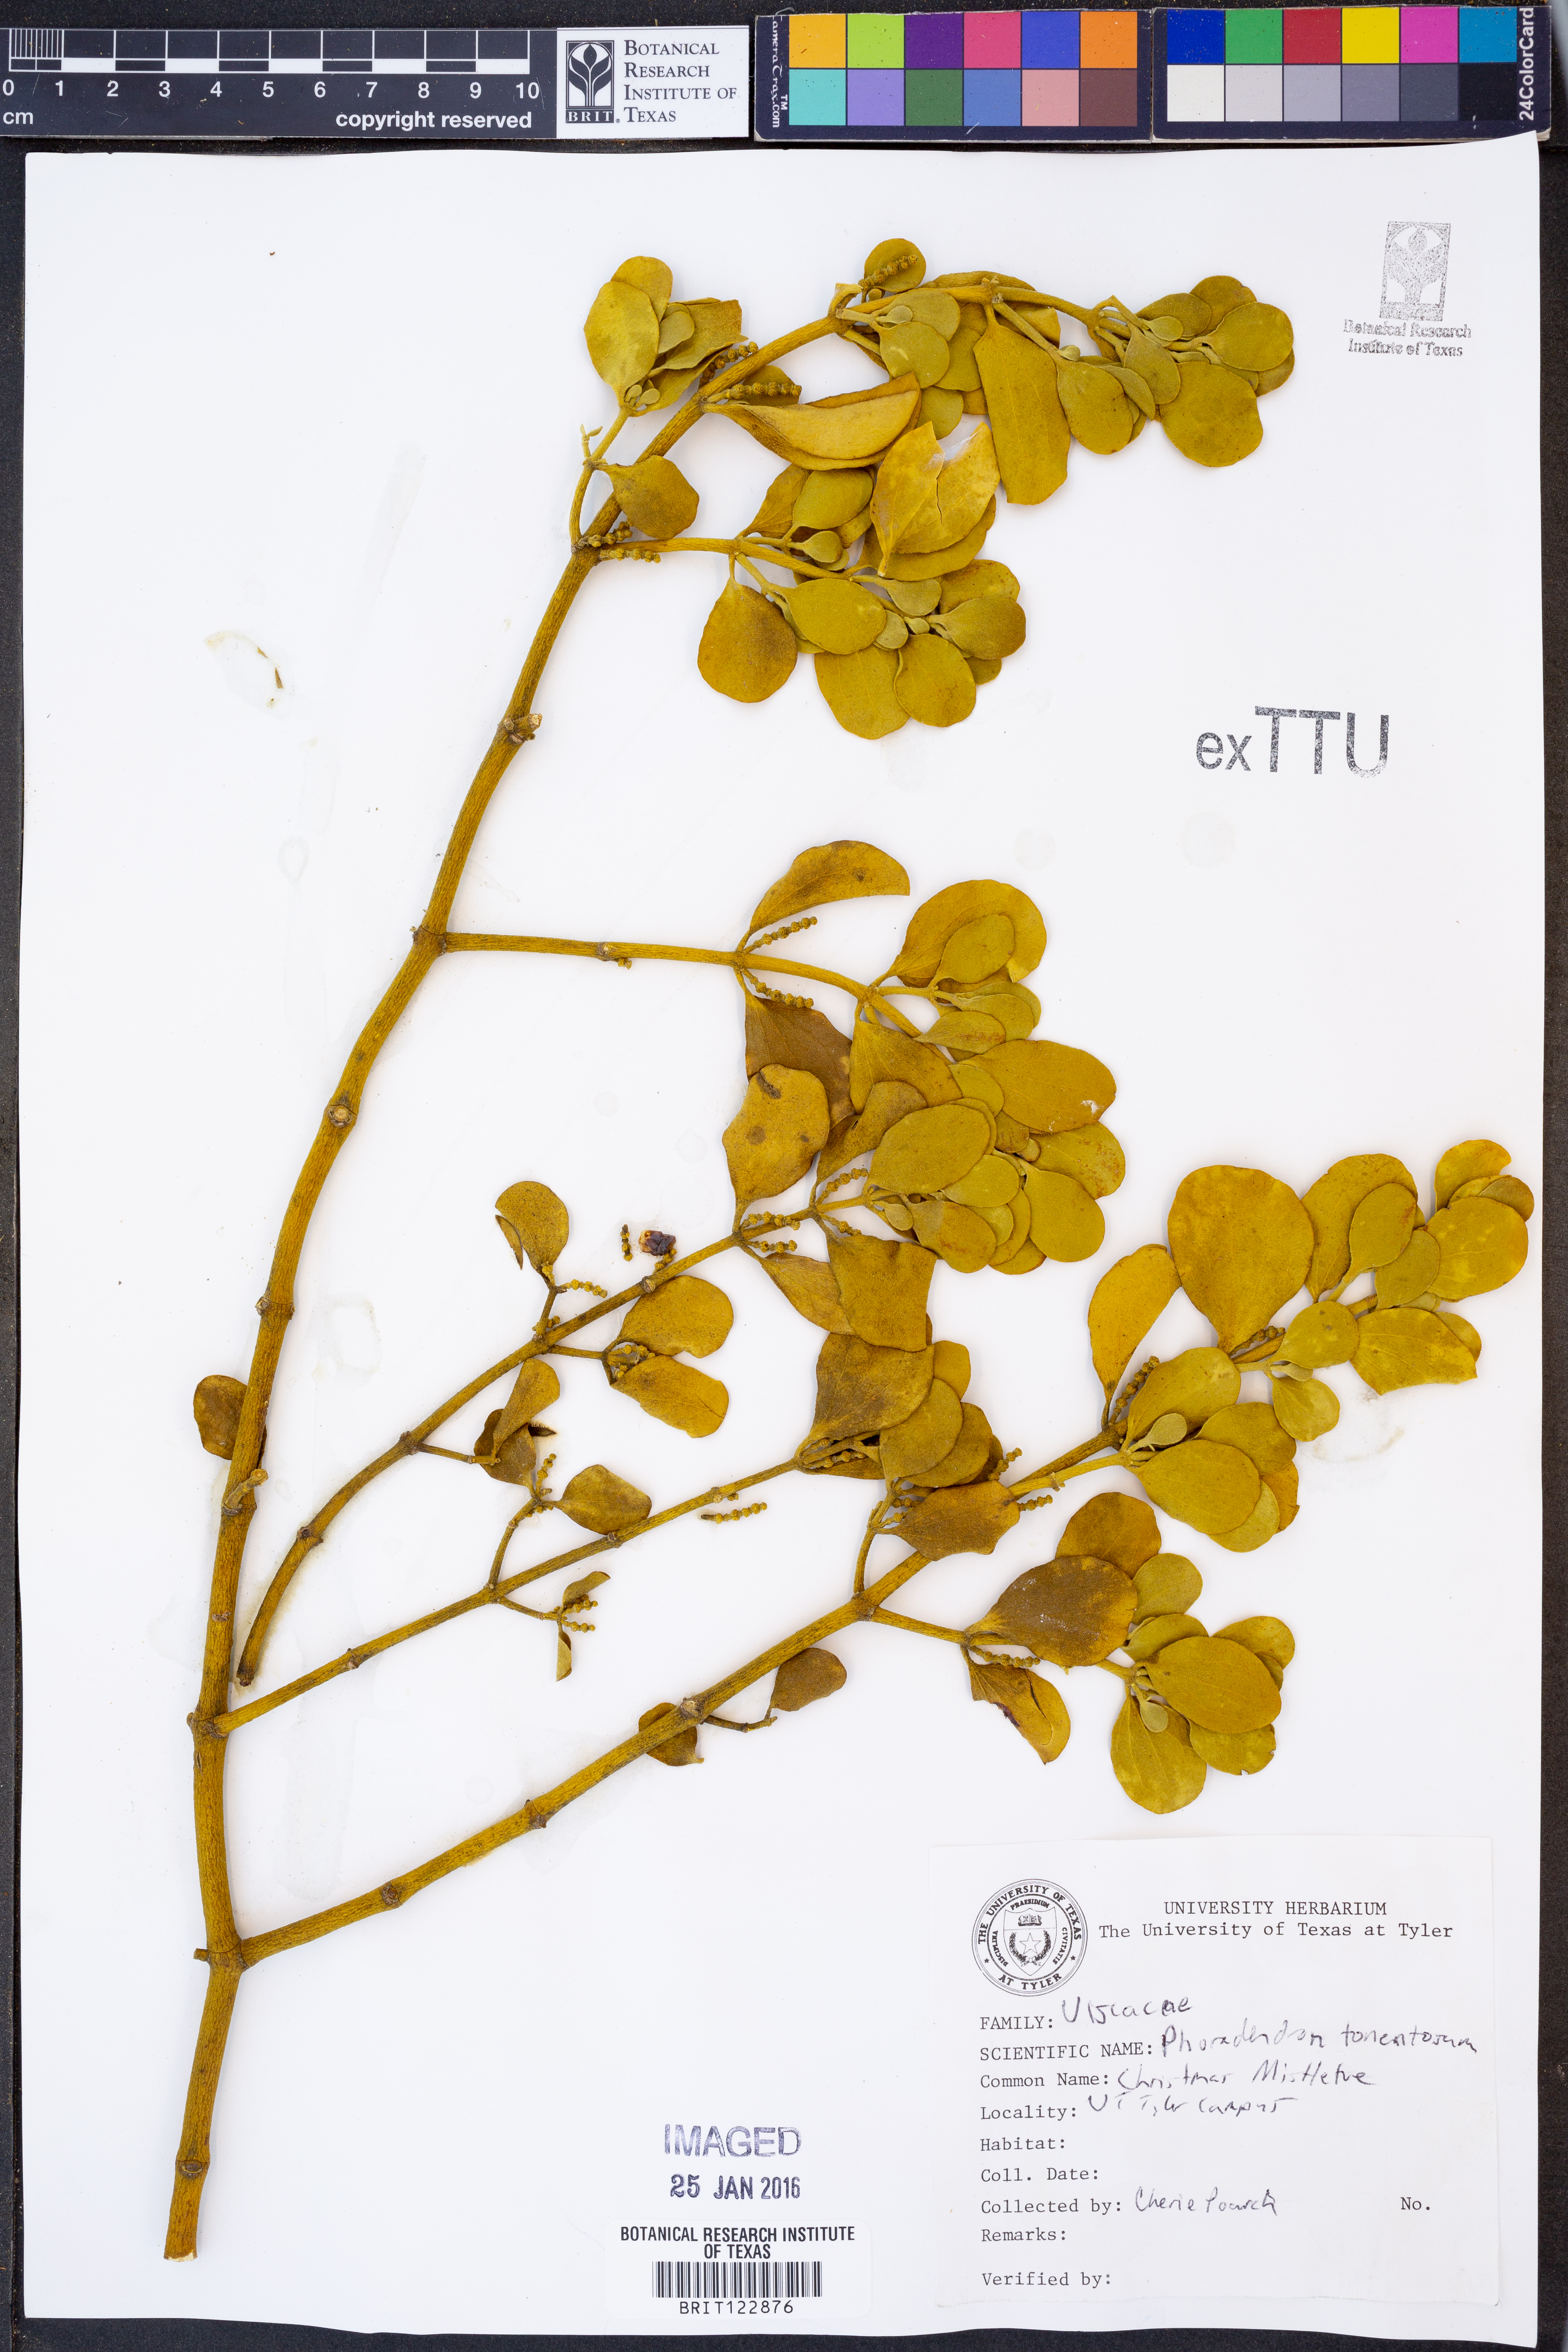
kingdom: Plantae
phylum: Tracheophyta
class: Magnoliopsida
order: Santalales
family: Viscaceae
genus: Phoradendron
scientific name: Phoradendron leucarpum
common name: Pacific mistletoe
